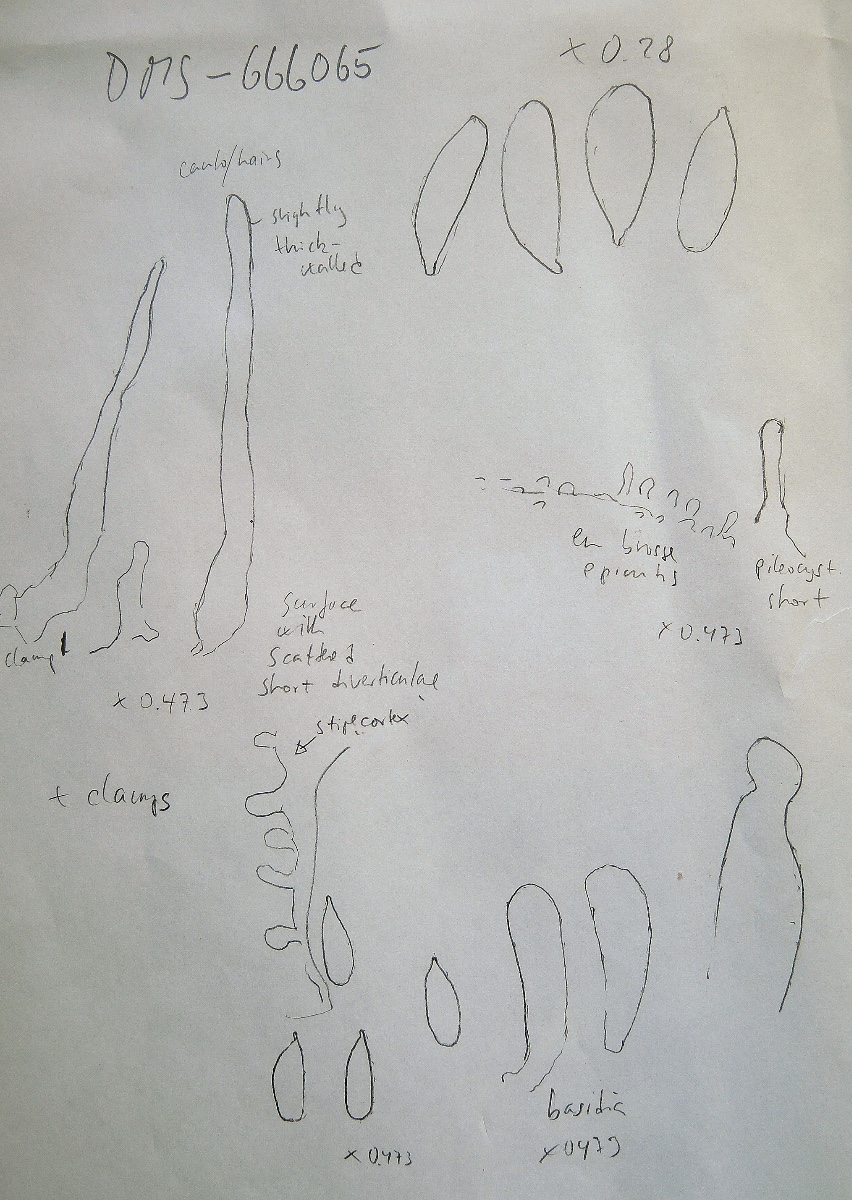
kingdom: Fungi
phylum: Basidiomycota
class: Agaricomycetes
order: Agaricales
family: Mycenaceae
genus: Hemimycena
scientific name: Hemimycena nitriolens
